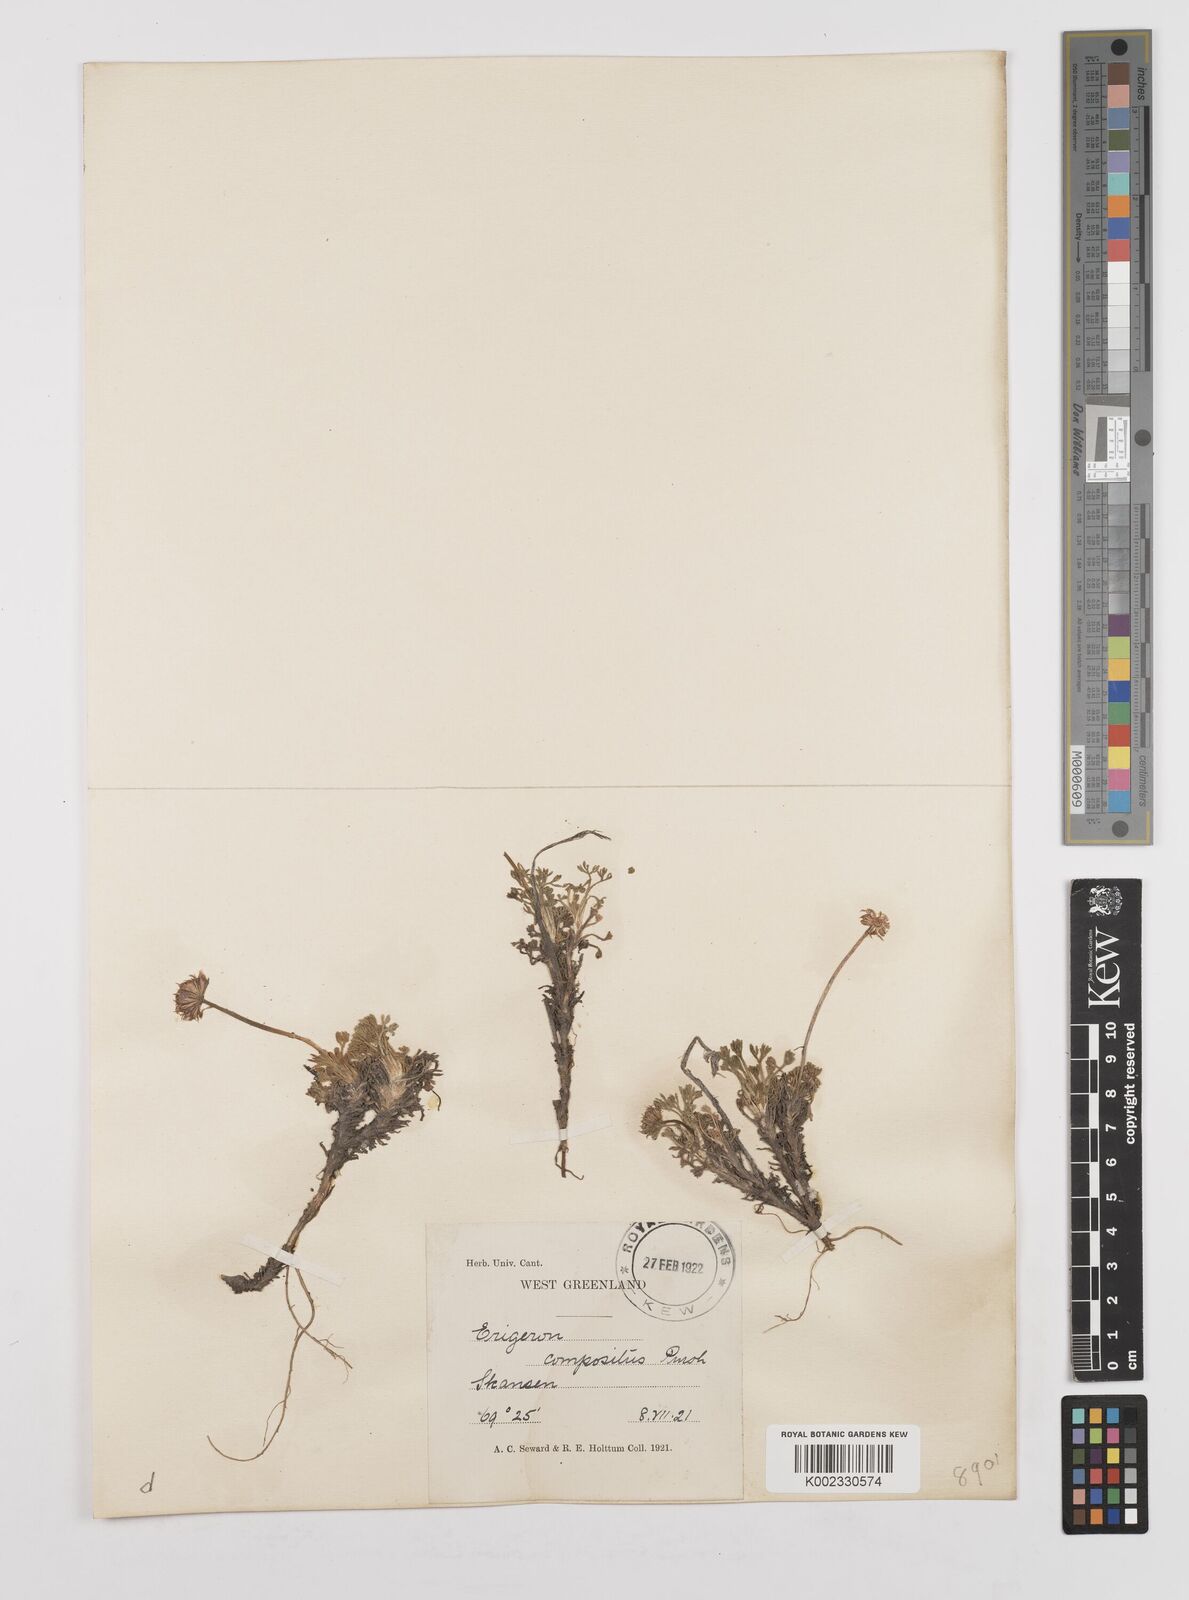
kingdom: Plantae
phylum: Tracheophyta
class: Magnoliopsida
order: Asterales
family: Asteraceae
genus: Erigeron
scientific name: Erigeron compositus
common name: Dwarf mountain fleabane
